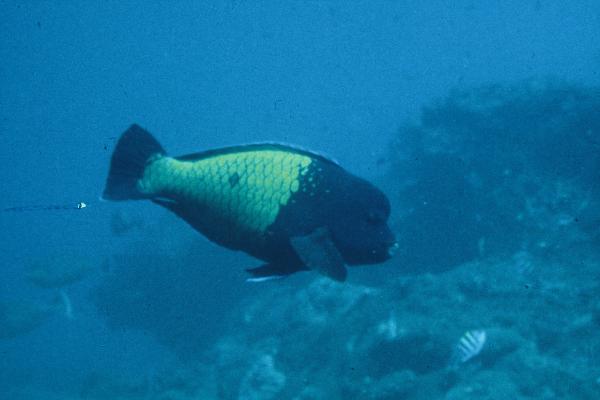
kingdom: Animalia
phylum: Chordata
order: Perciformes
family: Scaridae
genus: Chlorurus
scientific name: Chlorurus cyanescens
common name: Blue humphead parrotfish
